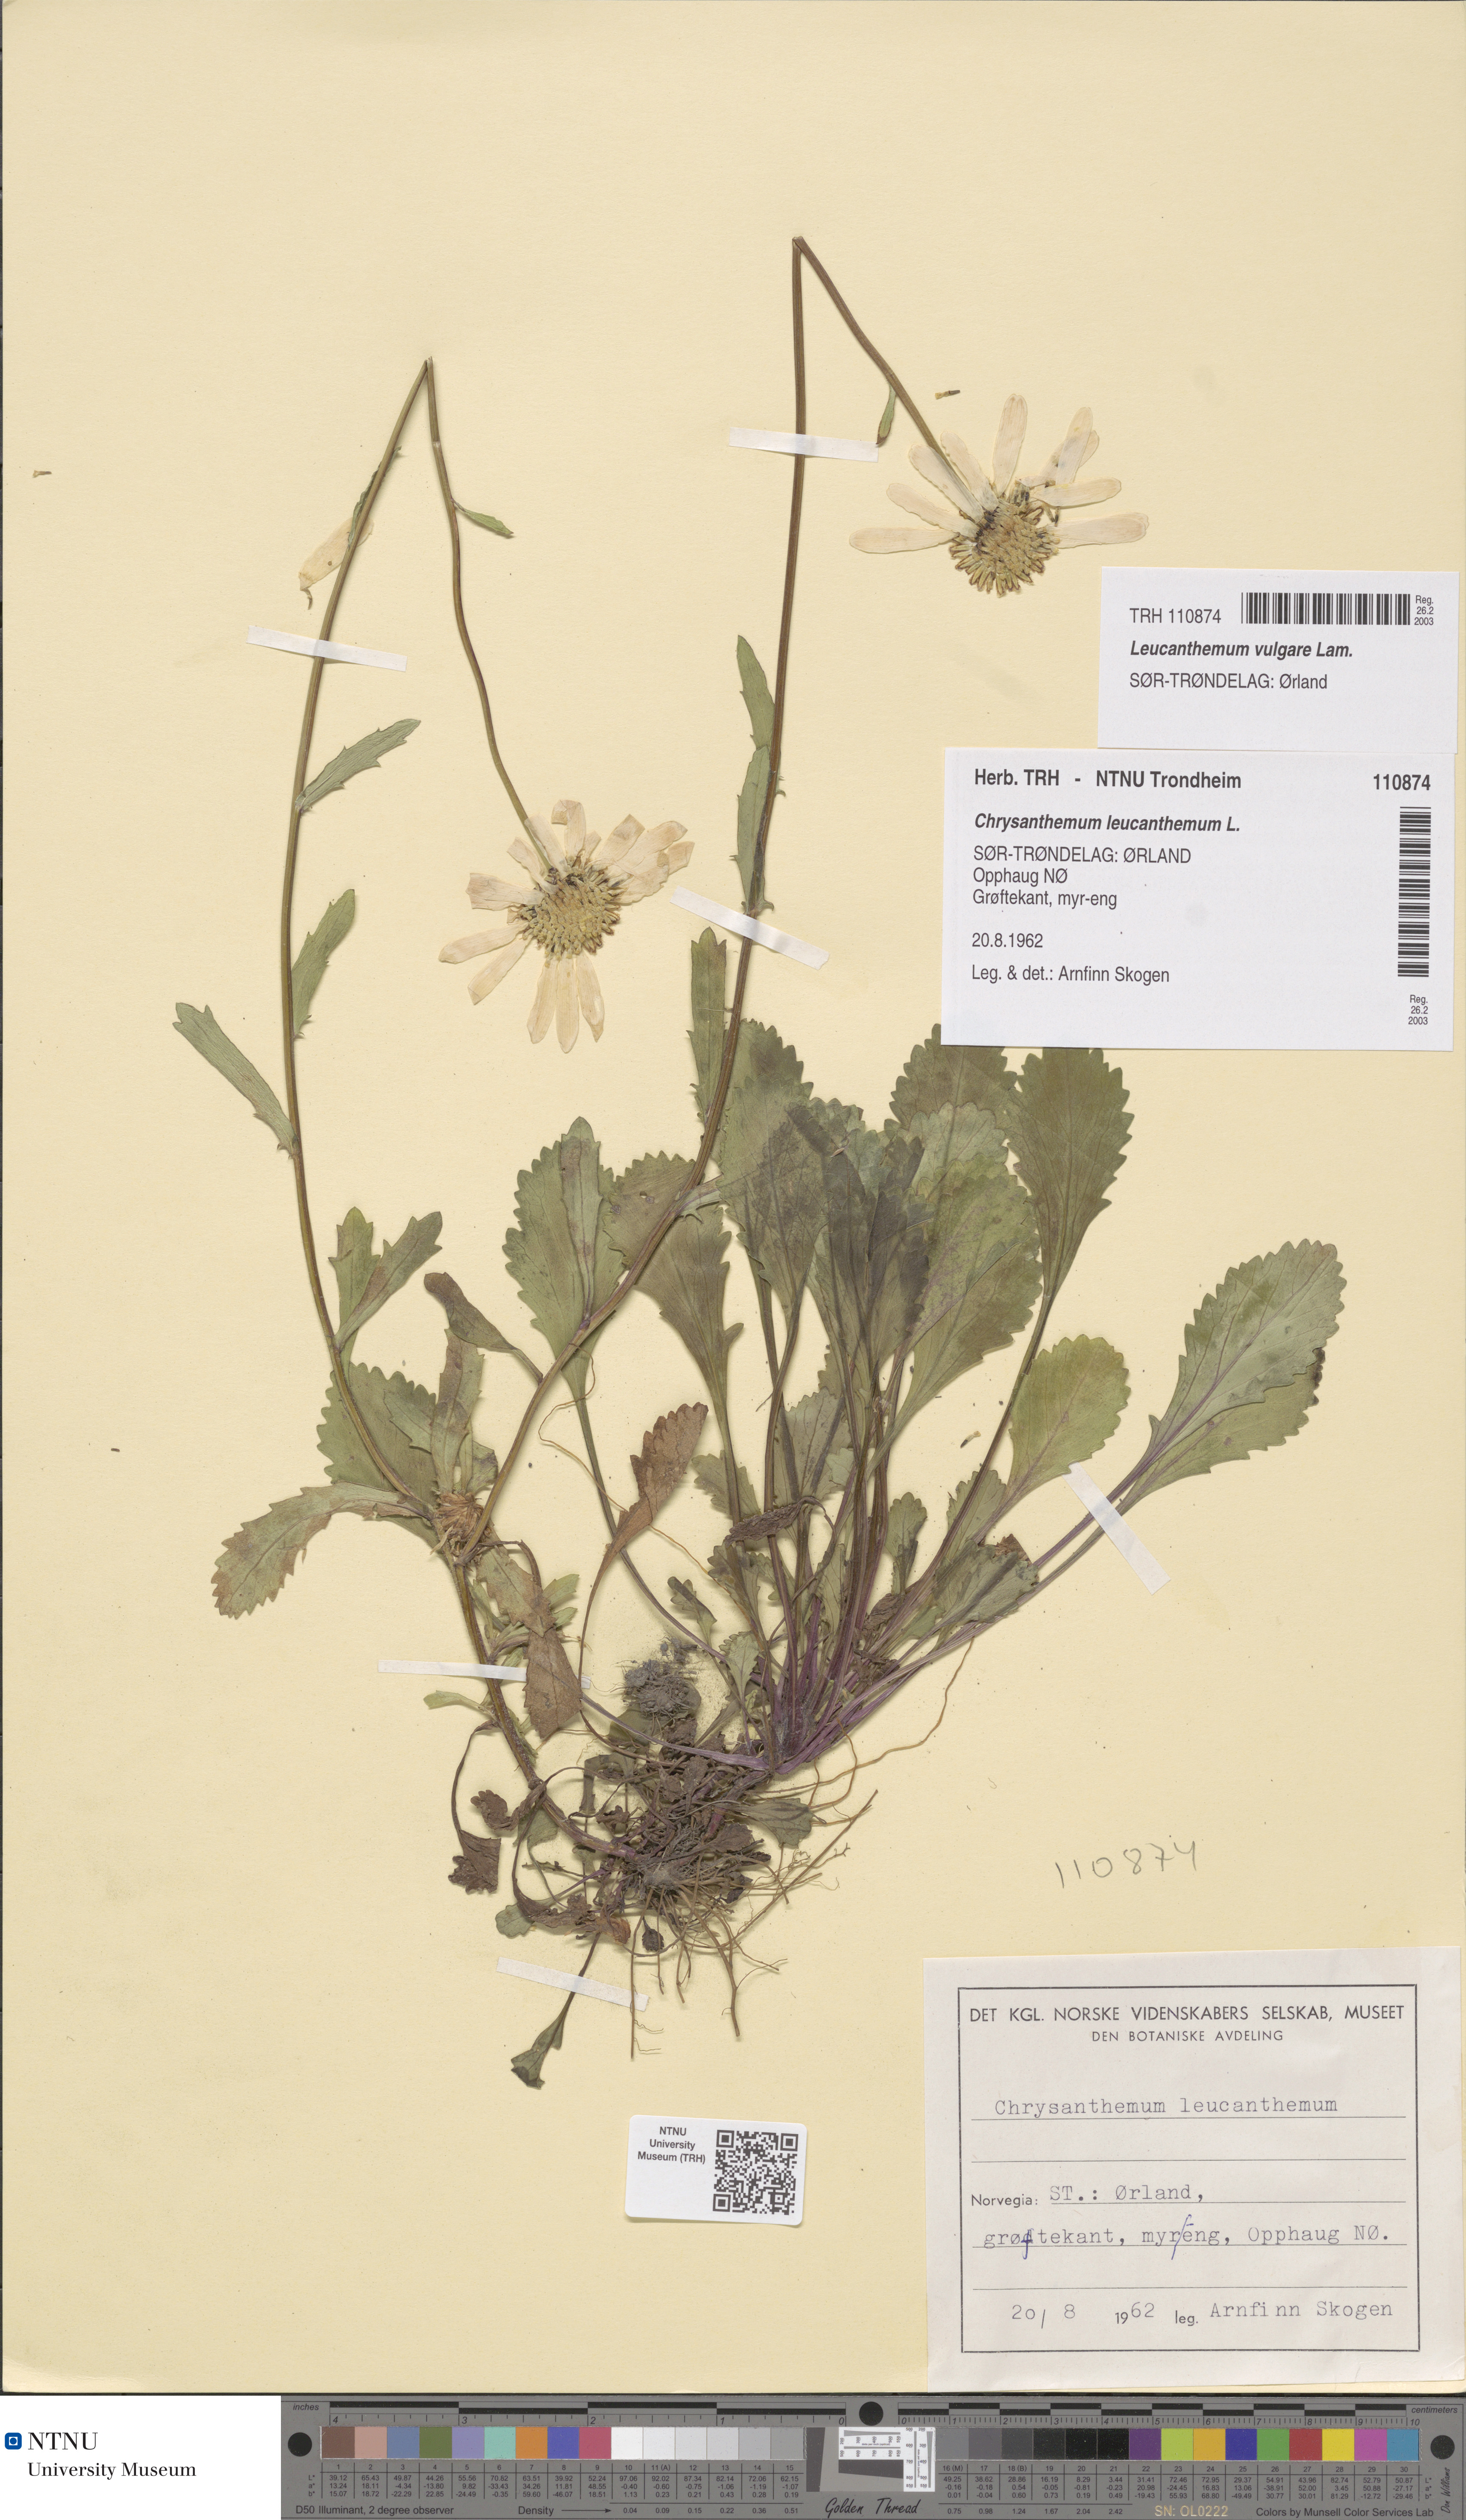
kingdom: Plantae
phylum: Tracheophyta
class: Magnoliopsida
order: Asterales
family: Asteraceae
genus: Leucanthemum
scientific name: Leucanthemum vulgare
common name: Oxeye daisy
